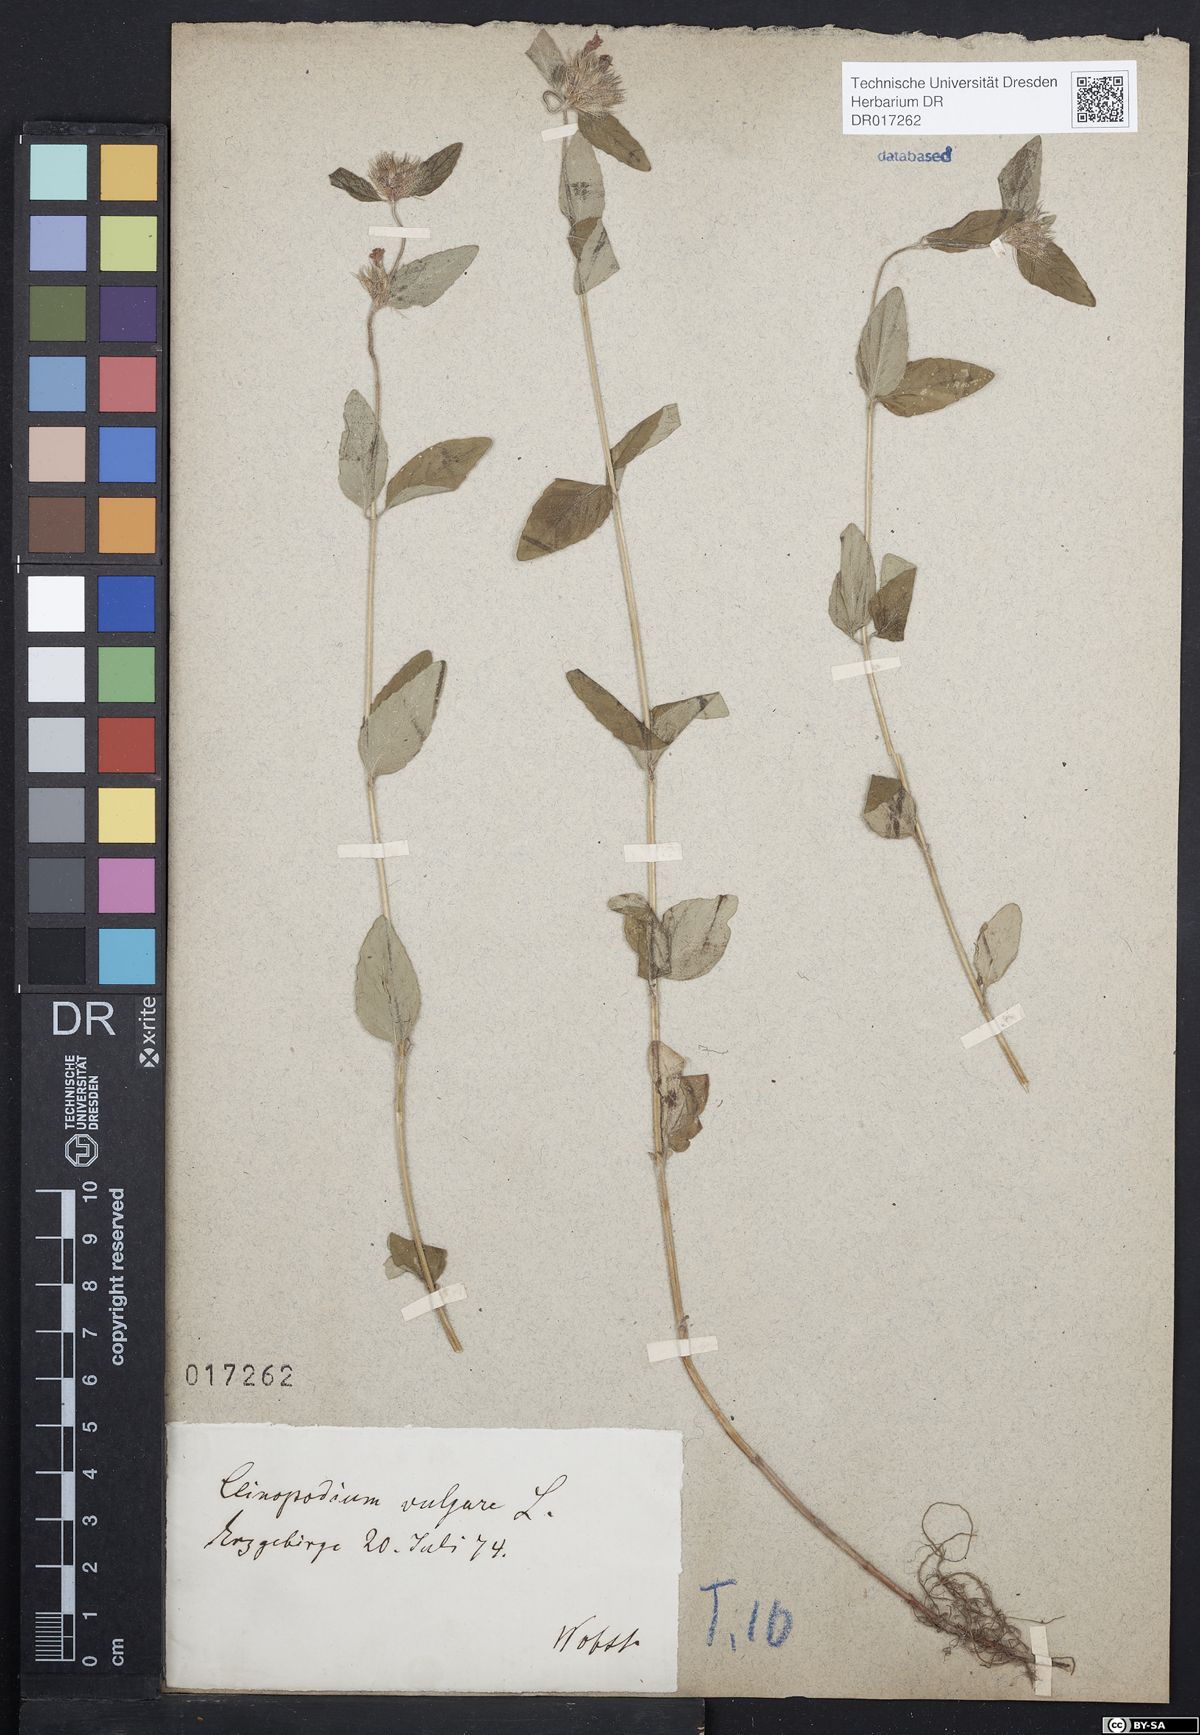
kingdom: Plantae
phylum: Tracheophyta
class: Magnoliopsida
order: Lamiales
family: Lamiaceae
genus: Clinopodium
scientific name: Clinopodium vulgare
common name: Wild basil
